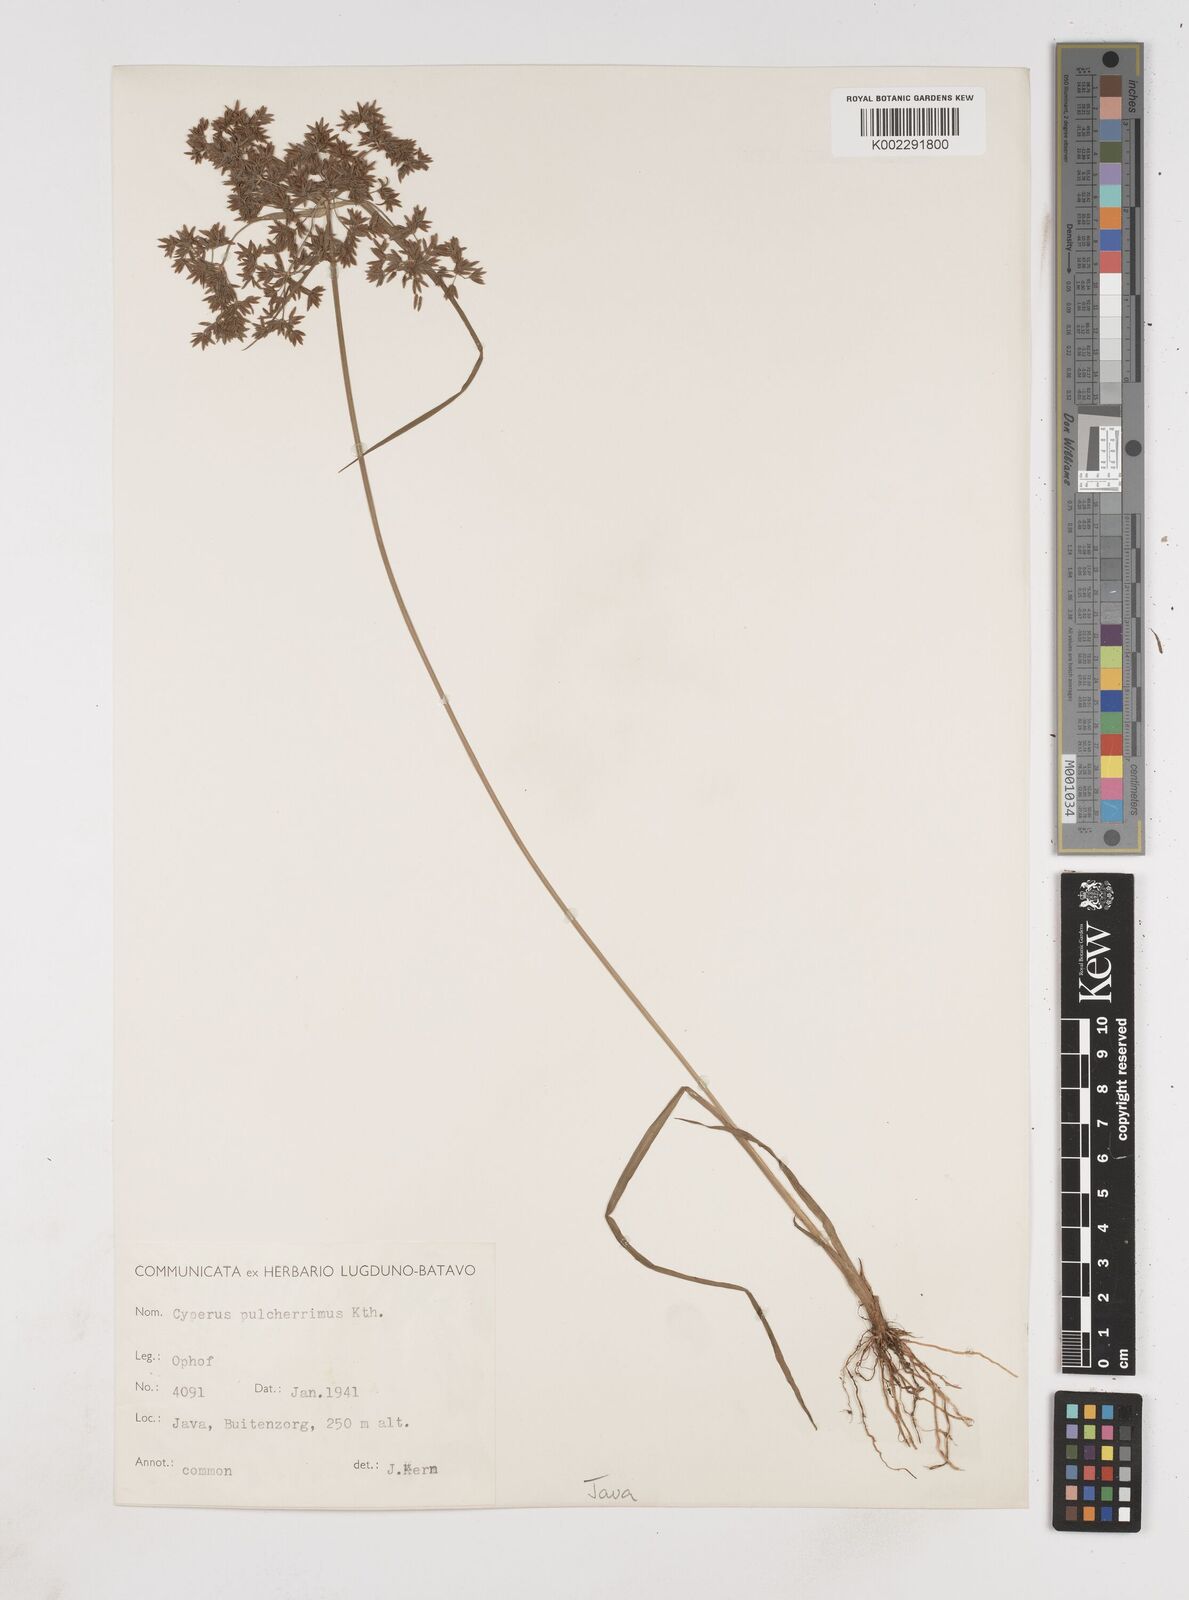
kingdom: Plantae
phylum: Tracheophyta
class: Liliopsida
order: Poales
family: Cyperaceae
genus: Cyperus
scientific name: Cyperus pulcherrimus
